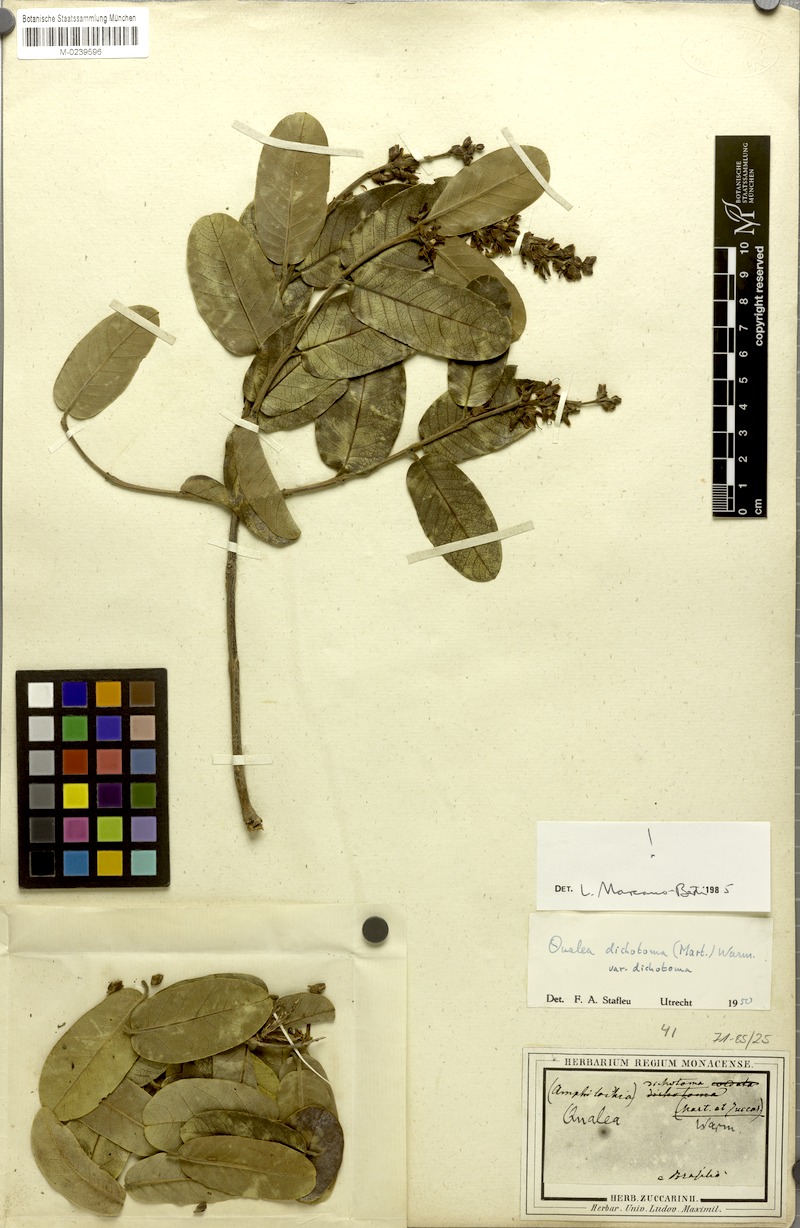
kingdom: Plantae
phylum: Tracheophyta
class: Magnoliopsida
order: Myrtales
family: Vochysiaceae
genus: Qualea
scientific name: Qualea cordata
